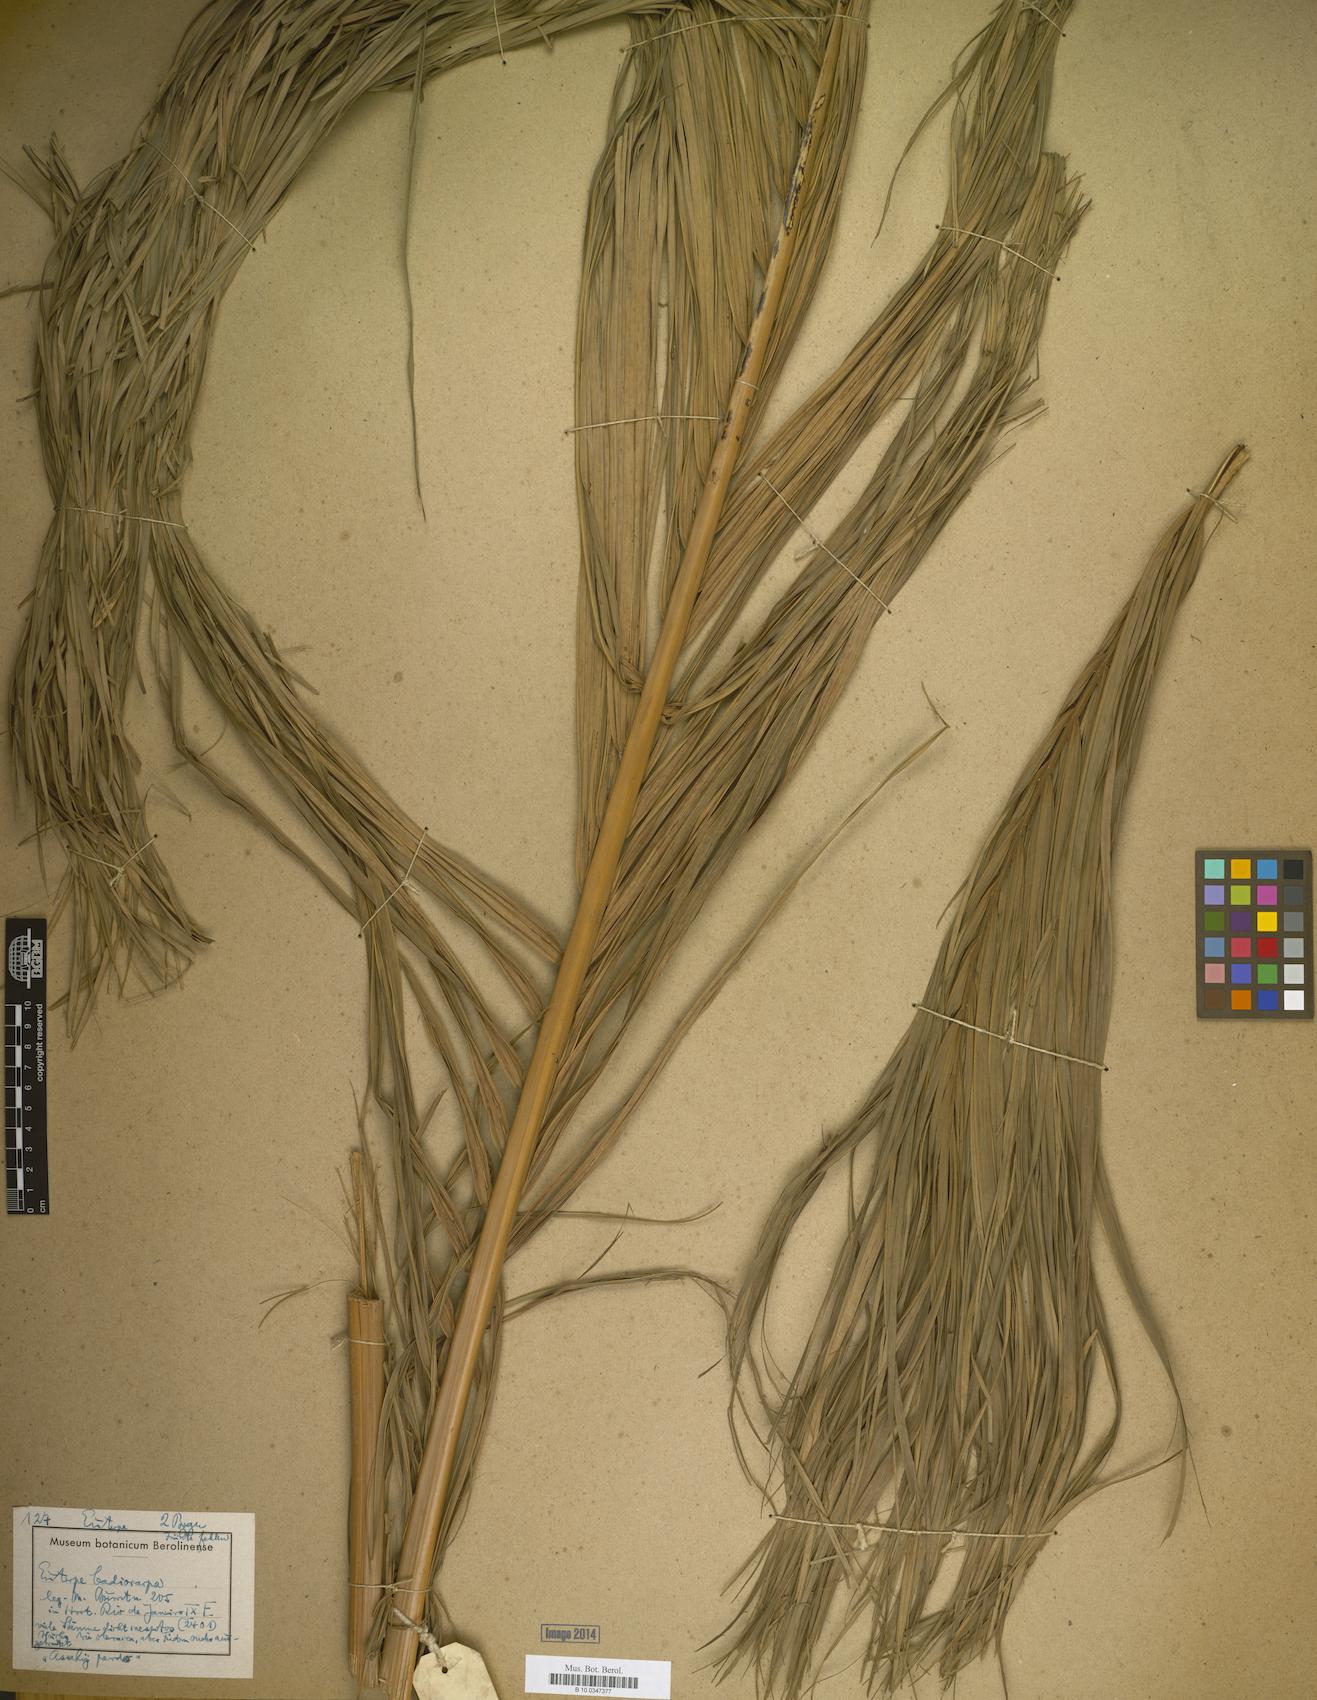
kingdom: Plantae
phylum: Tracheophyta
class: Liliopsida
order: Arecales
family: Arecaceae
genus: Euterpe
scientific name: Euterpe oleracea
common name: Assai palm
